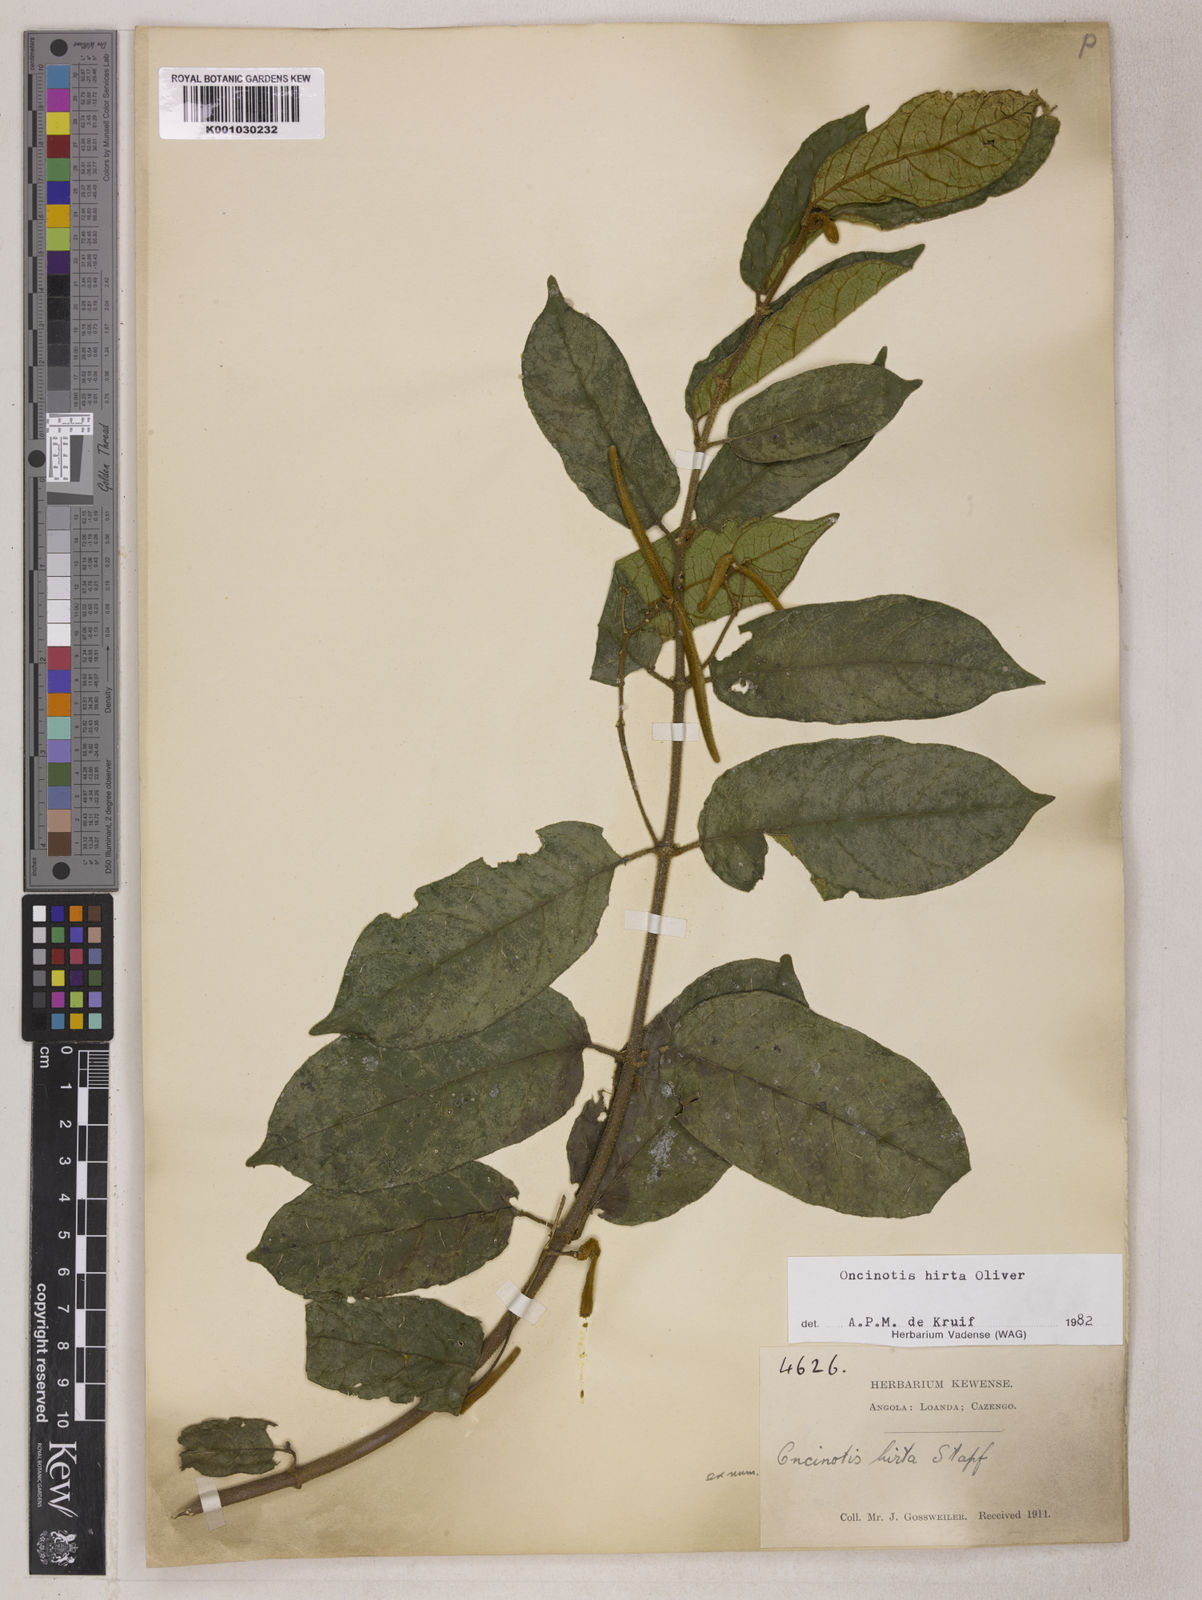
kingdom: Plantae
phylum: Tracheophyta
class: Magnoliopsida
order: Gentianales
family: Apocynaceae
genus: Oncinotis
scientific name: Oncinotis hirta
